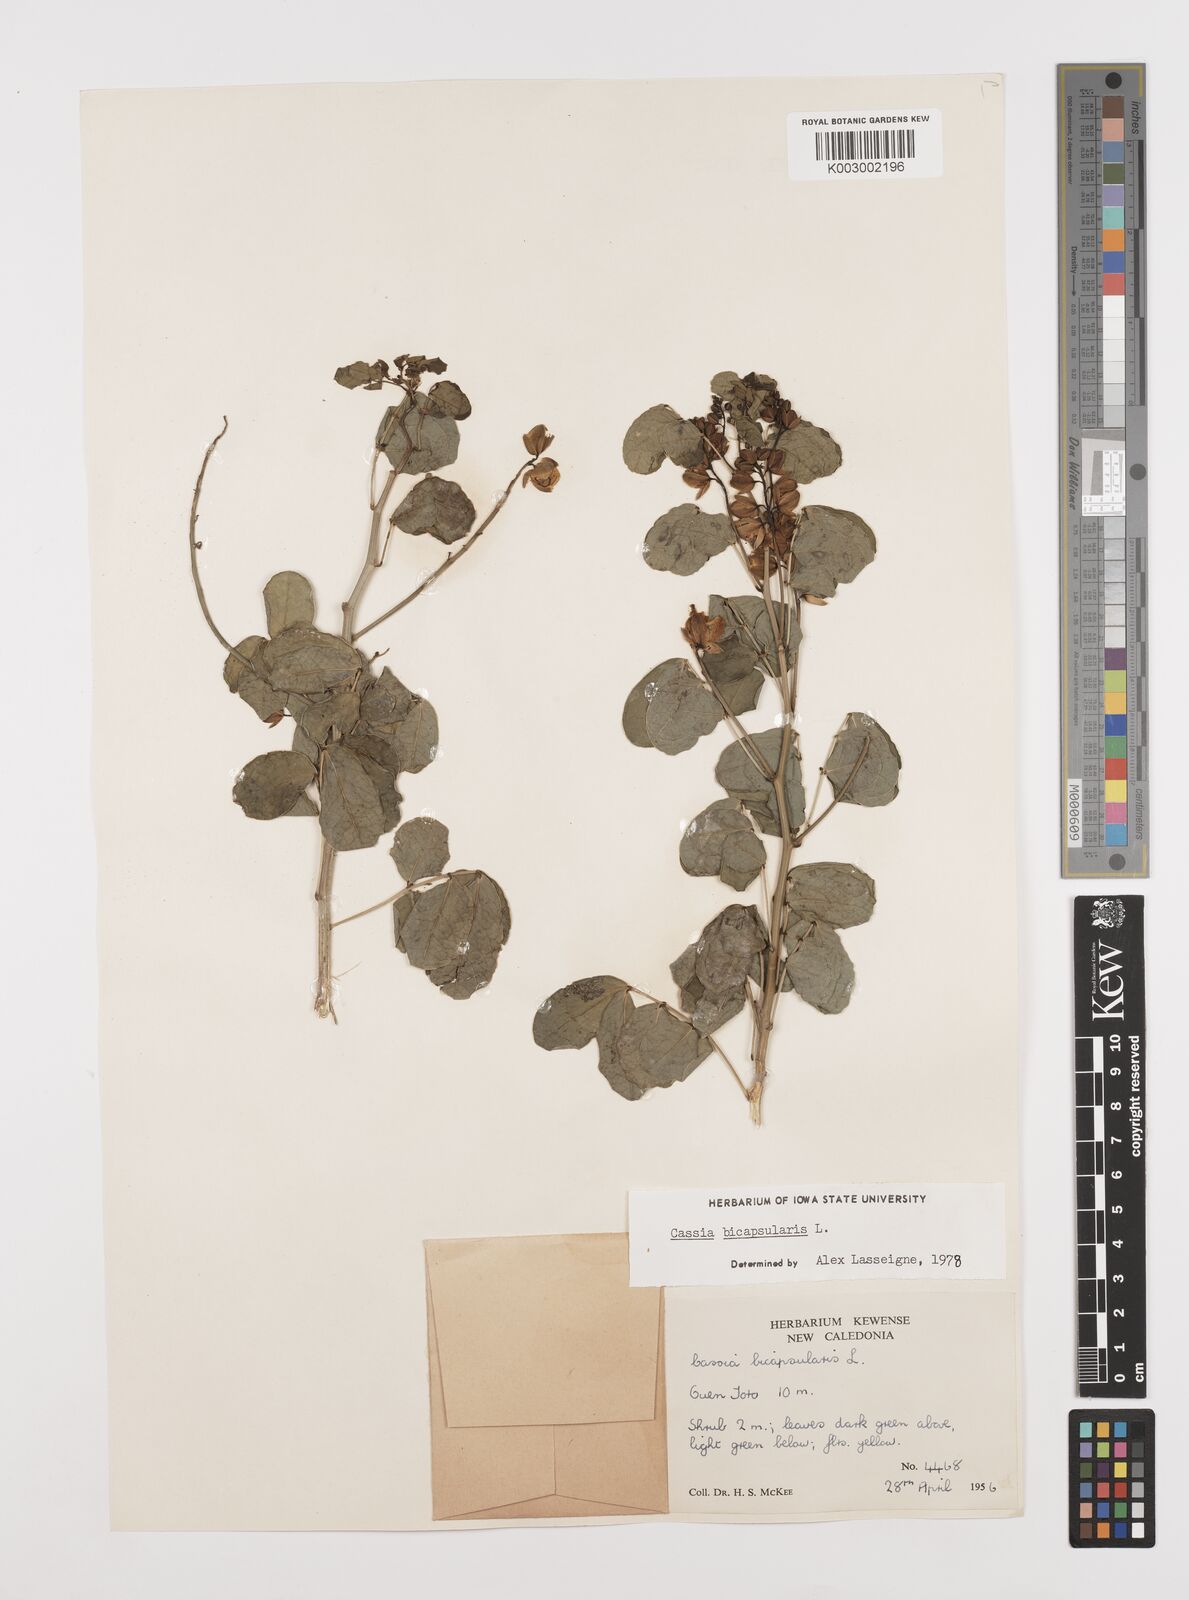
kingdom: Plantae
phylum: Tracheophyta
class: Magnoliopsida
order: Fabales
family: Fabaceae
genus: Senna
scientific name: Senna bicapsularis
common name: Christmasbush
